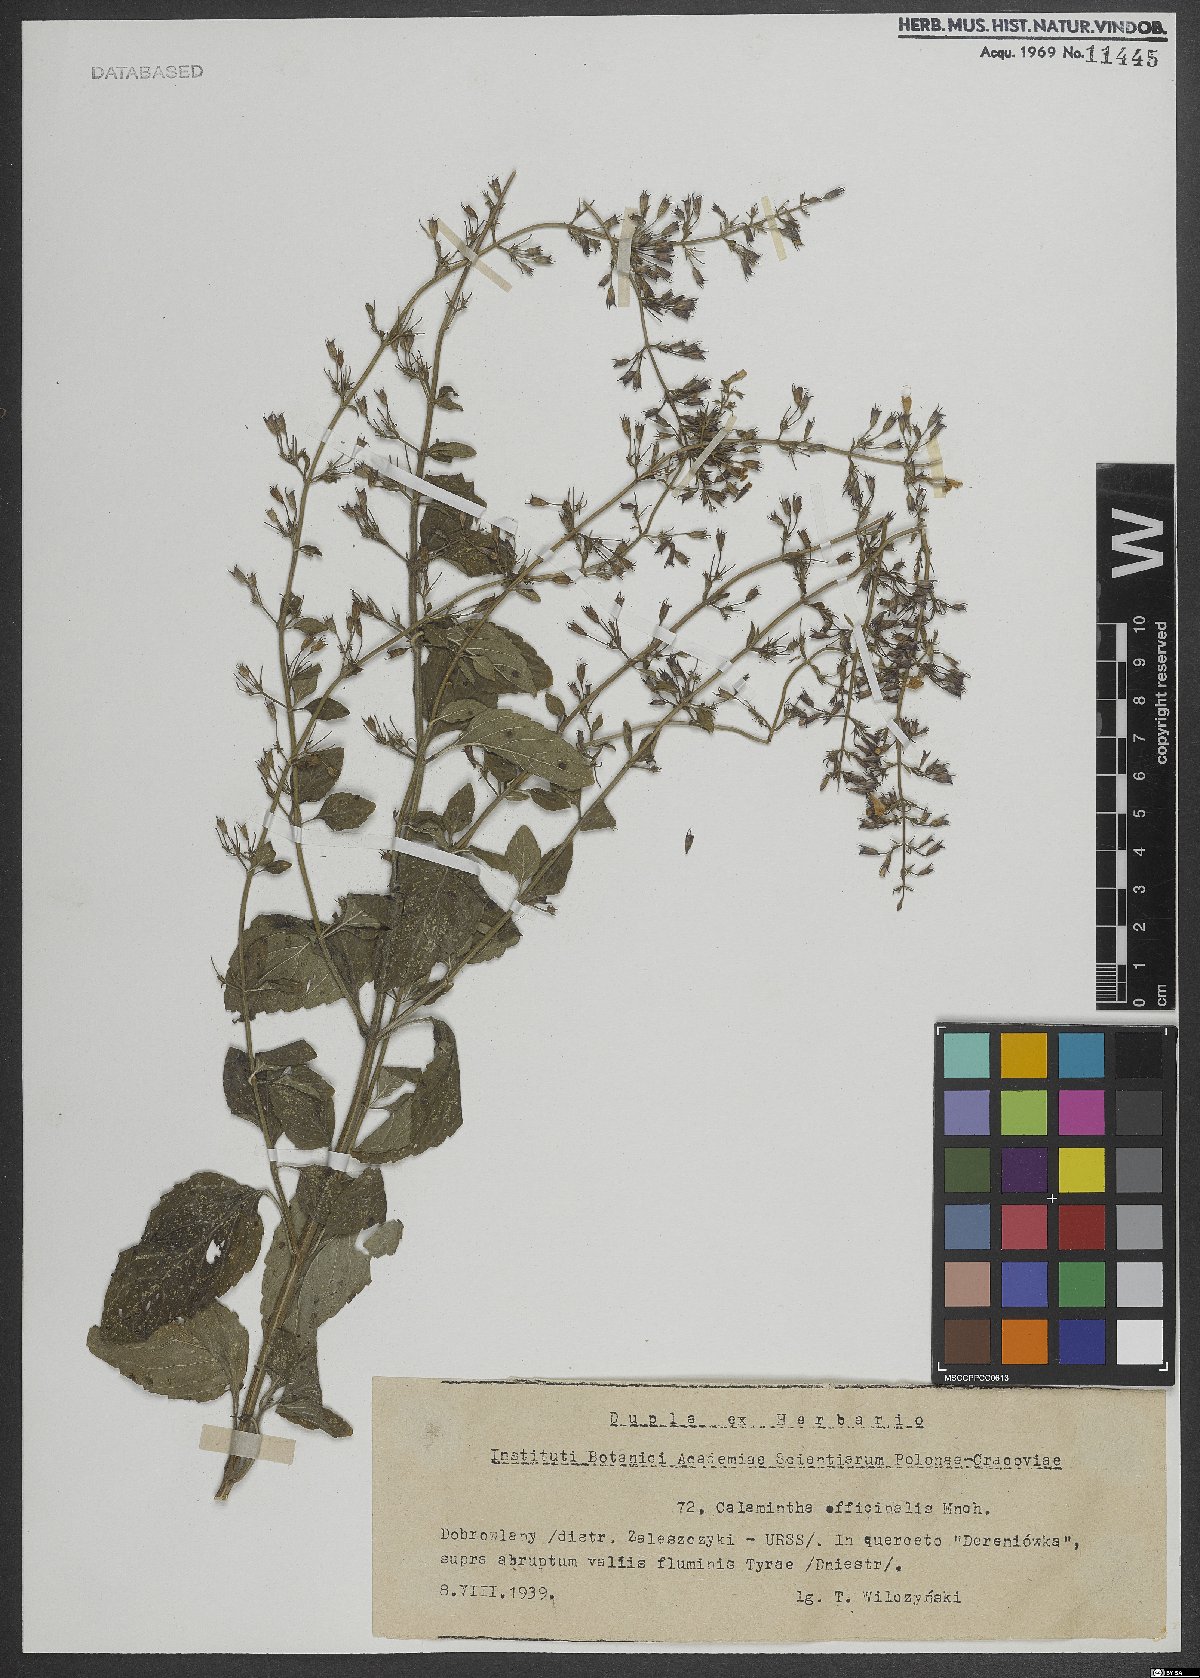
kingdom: Plantae
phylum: Tracheophyta
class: Magnoliopsida
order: Lamiales
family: Lamiaceae
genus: Clinopodium
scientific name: Clinopodium nepeta
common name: Lesser calamint
